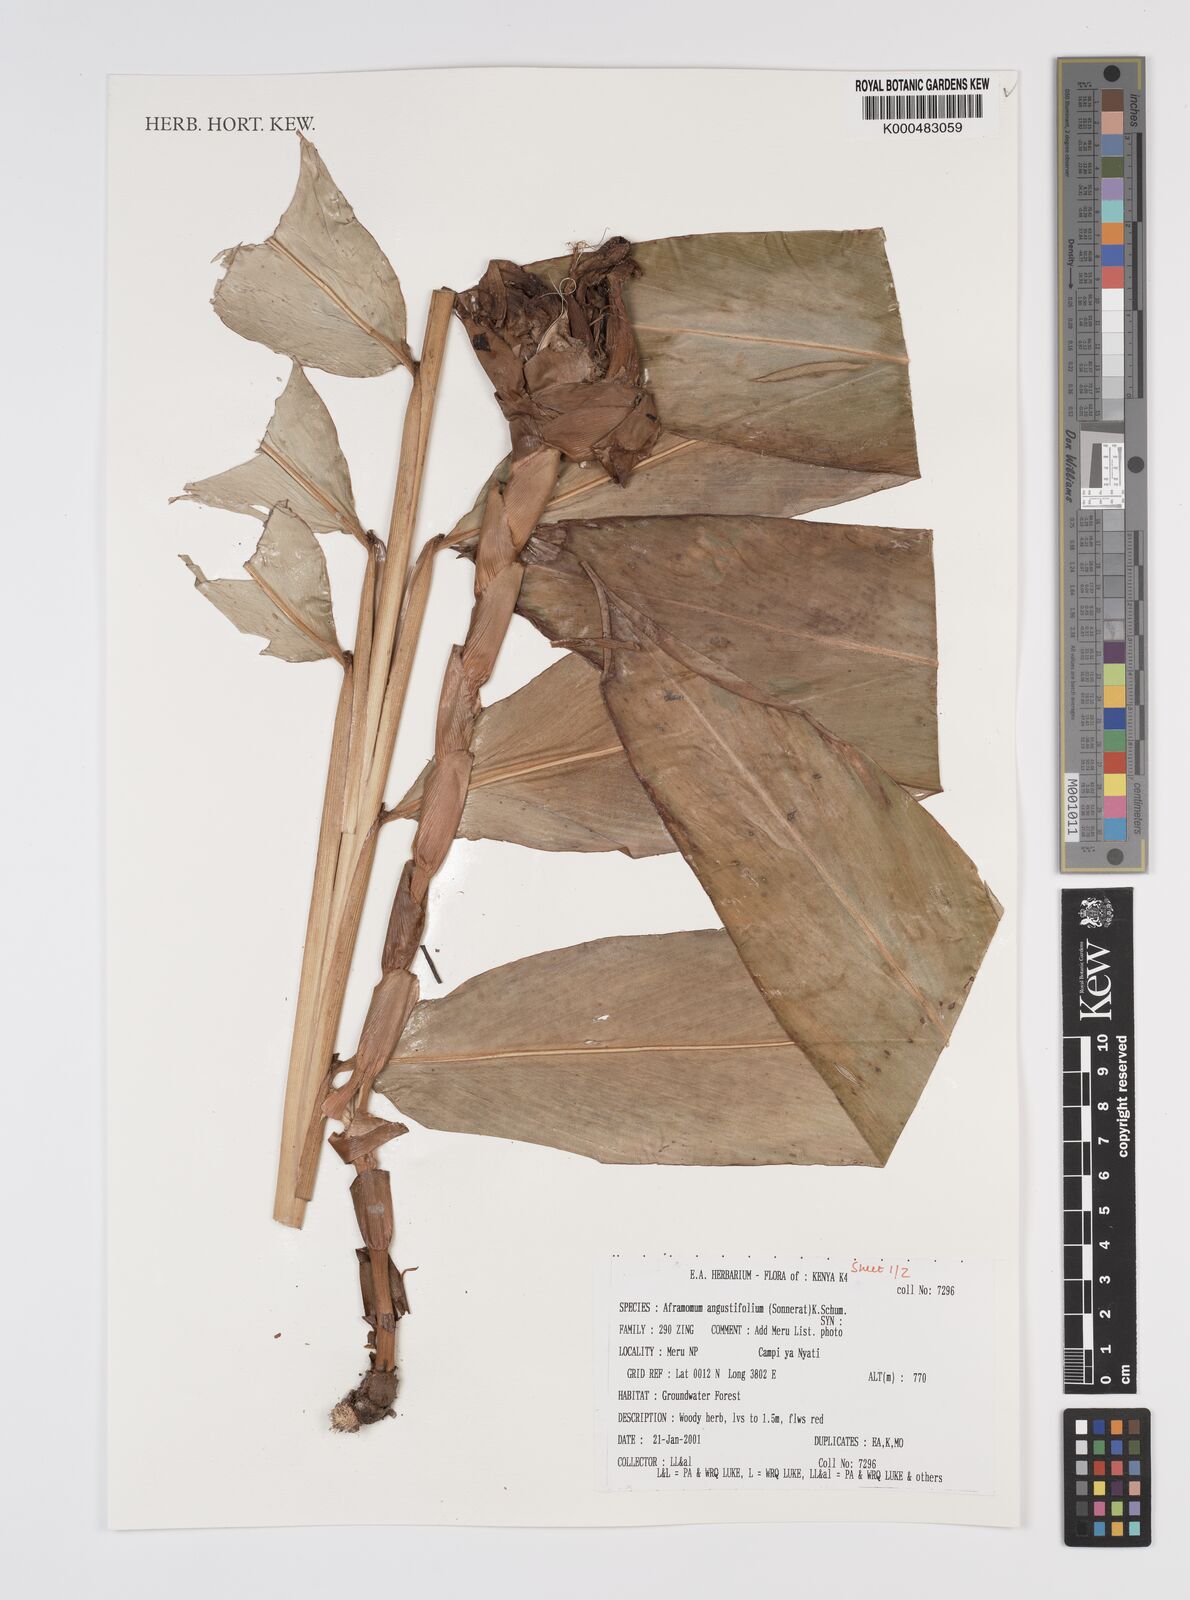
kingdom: Plantae
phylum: Tracheophyta
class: Liliopsida
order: Zingiberales
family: Zingiberaceae
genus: Aframomum
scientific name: Aframomum angustifolium
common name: Guinea grains
